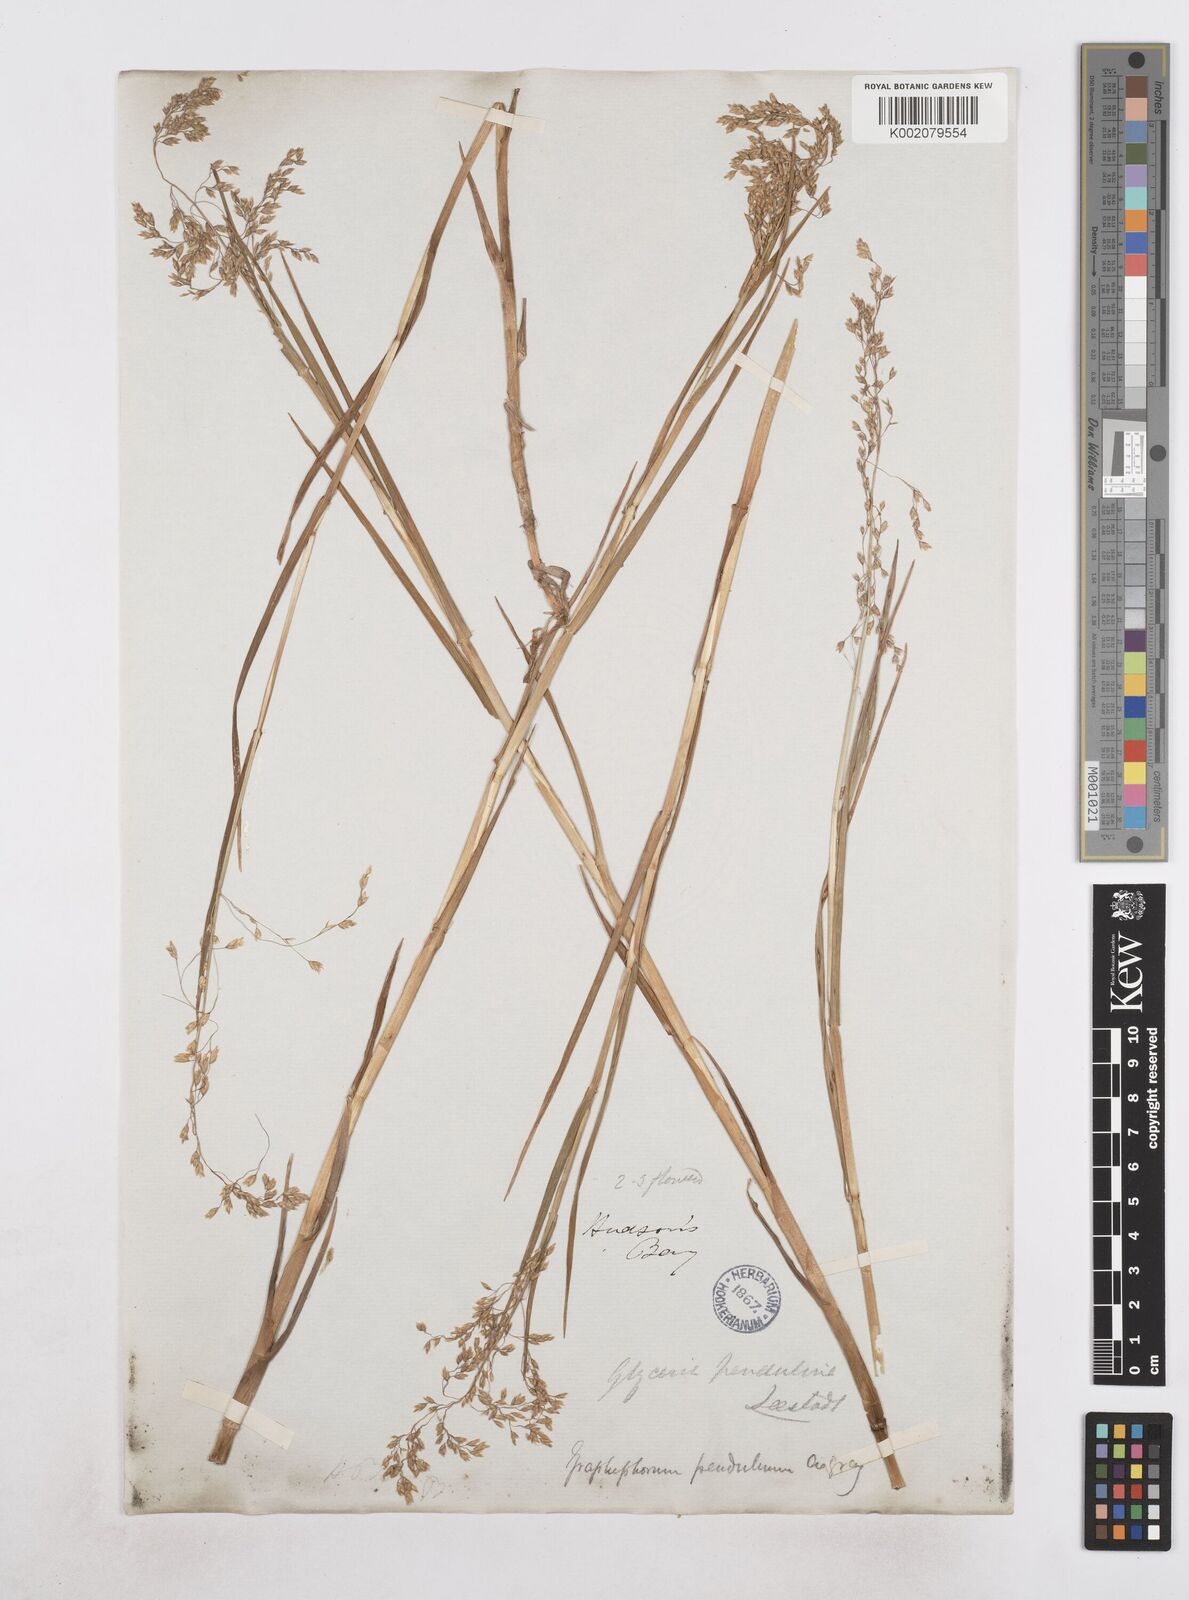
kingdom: Plantae
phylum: Tracheophyta
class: Liliopsida
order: Poales
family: Poaceae
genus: Dupontia
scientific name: Dupontia fulva
